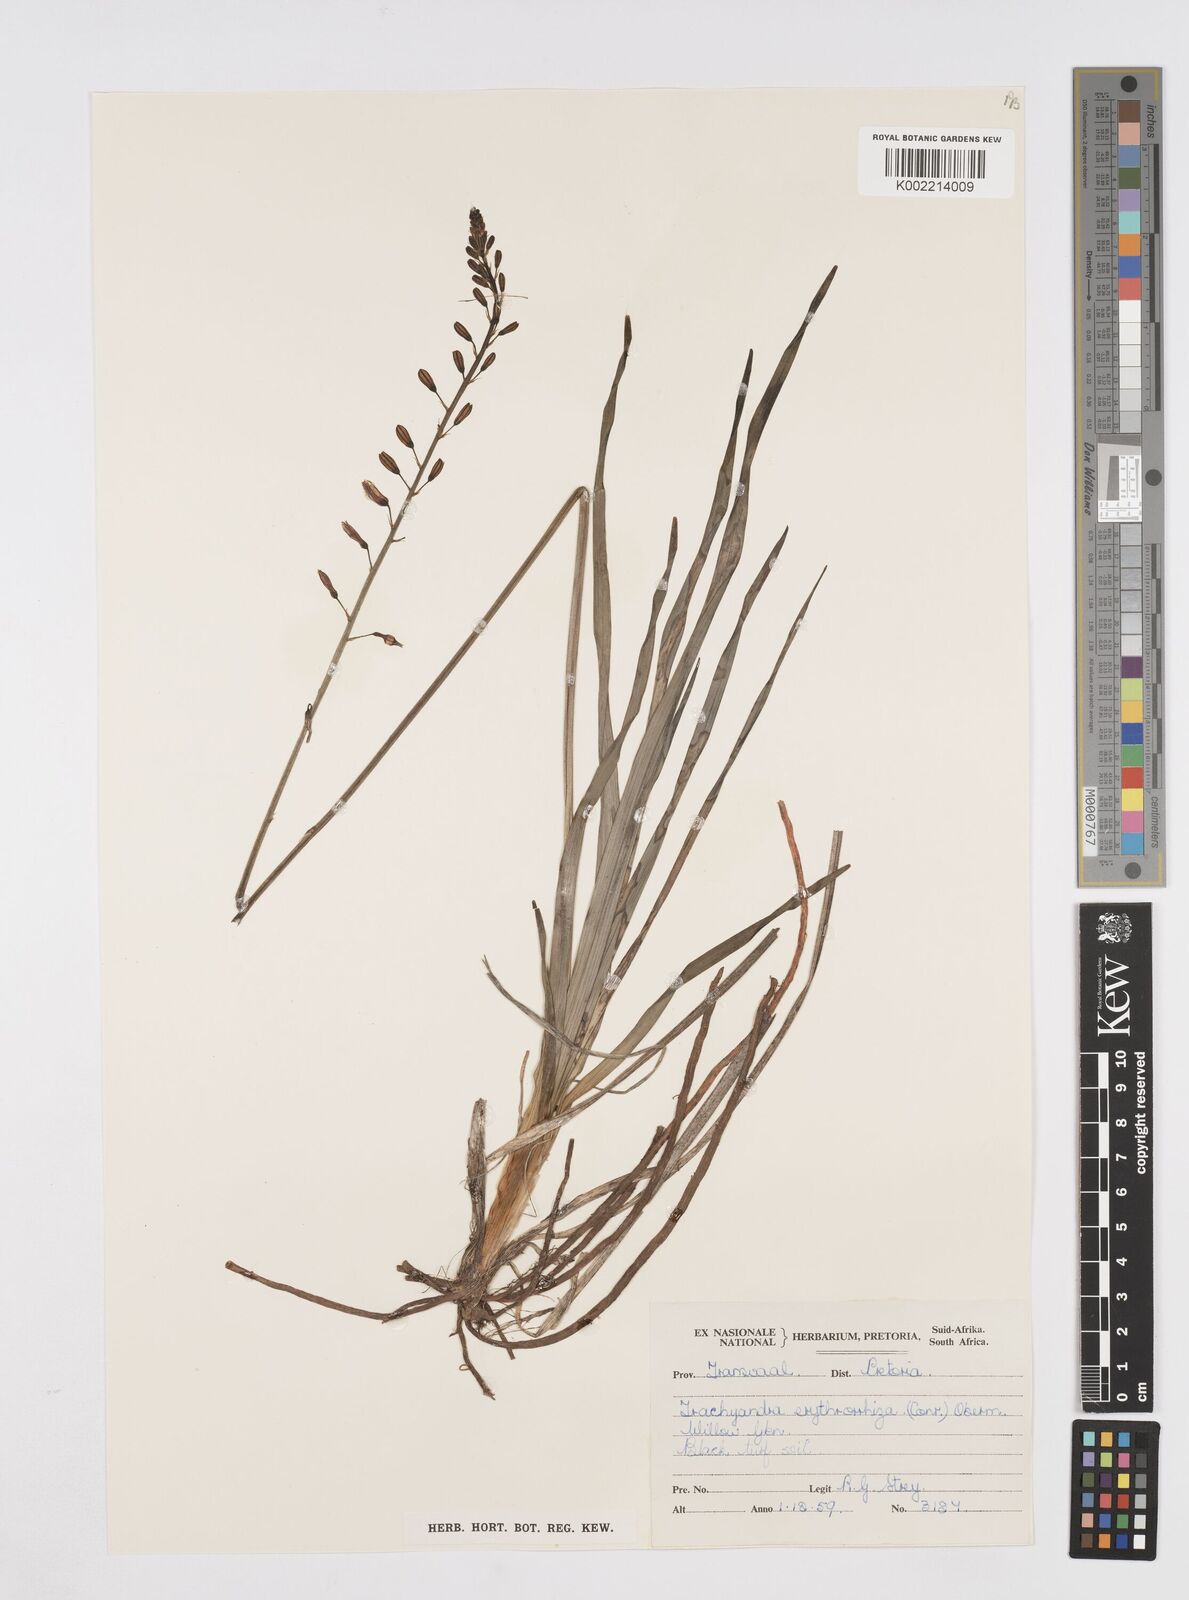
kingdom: Plantae
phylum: Tracheophyta
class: Liliopsida
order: Asparagales
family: Asphodelaceae
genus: Trachyandra
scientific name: Trachyandra erythrorrhiza
